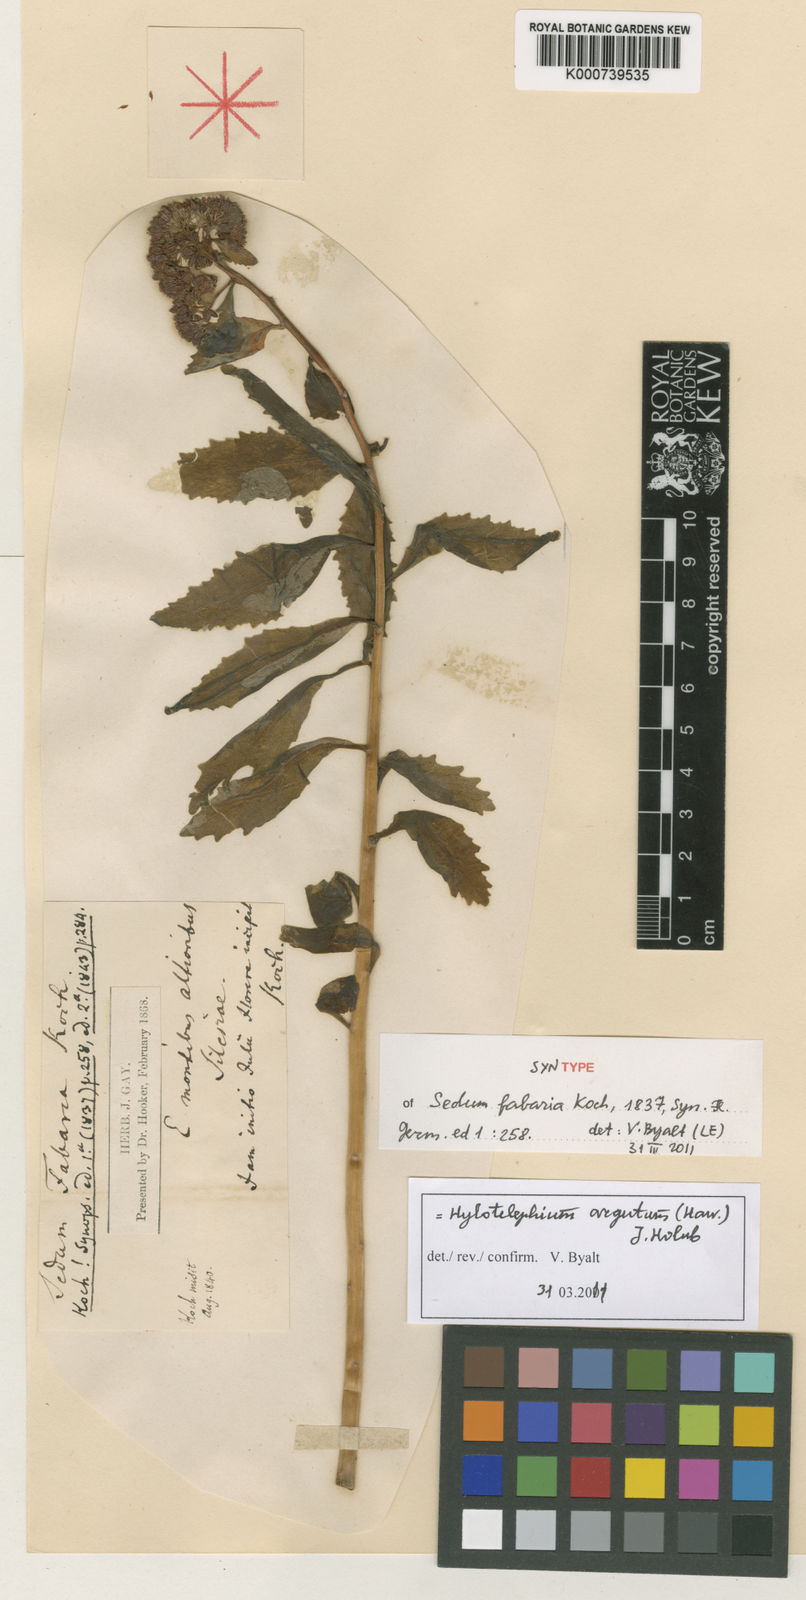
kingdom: Plantae
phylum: Tracheophyta
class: Magnoliopsida
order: Saxifragales
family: Crassulaceae
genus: Hylotelephium
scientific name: Hylotelephium vulgare
